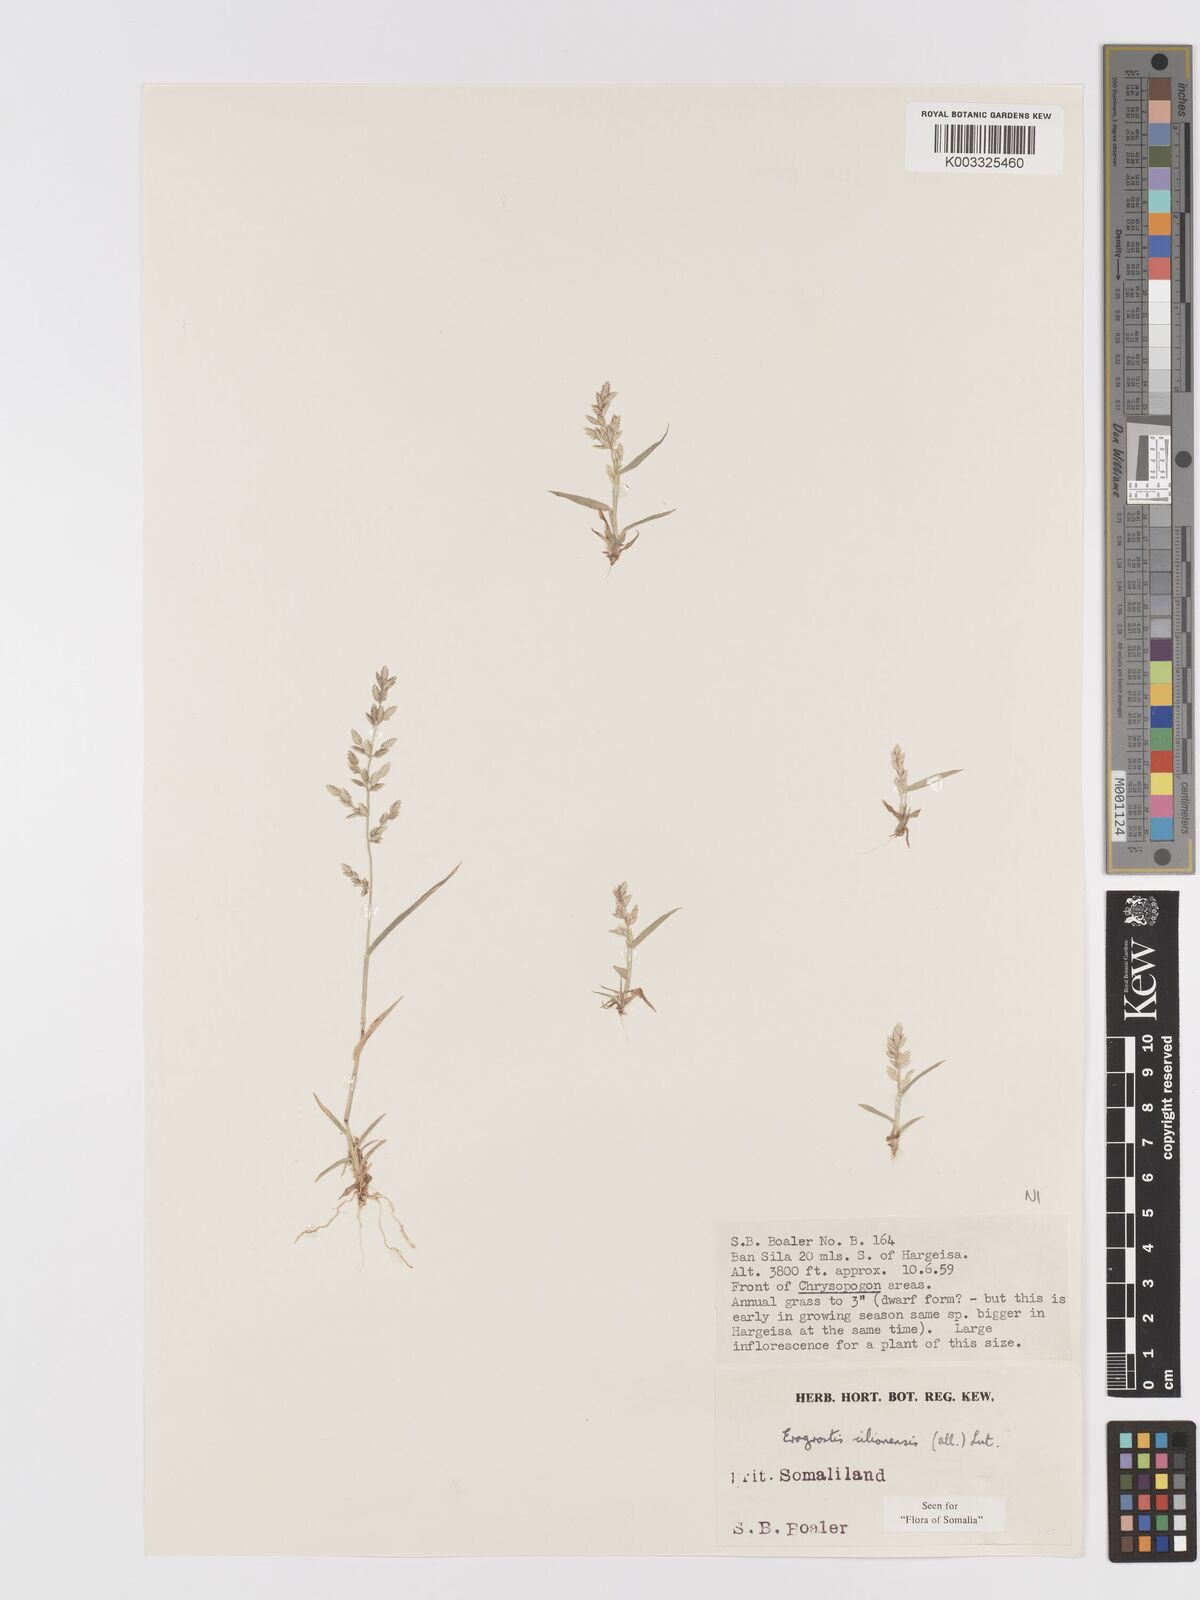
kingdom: Plantae
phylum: Tracheophyta
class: Liliopsida
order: Poales
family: Poaceae
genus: Eragrostis
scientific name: Eragrostis cilianensis
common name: Stinkgrass
